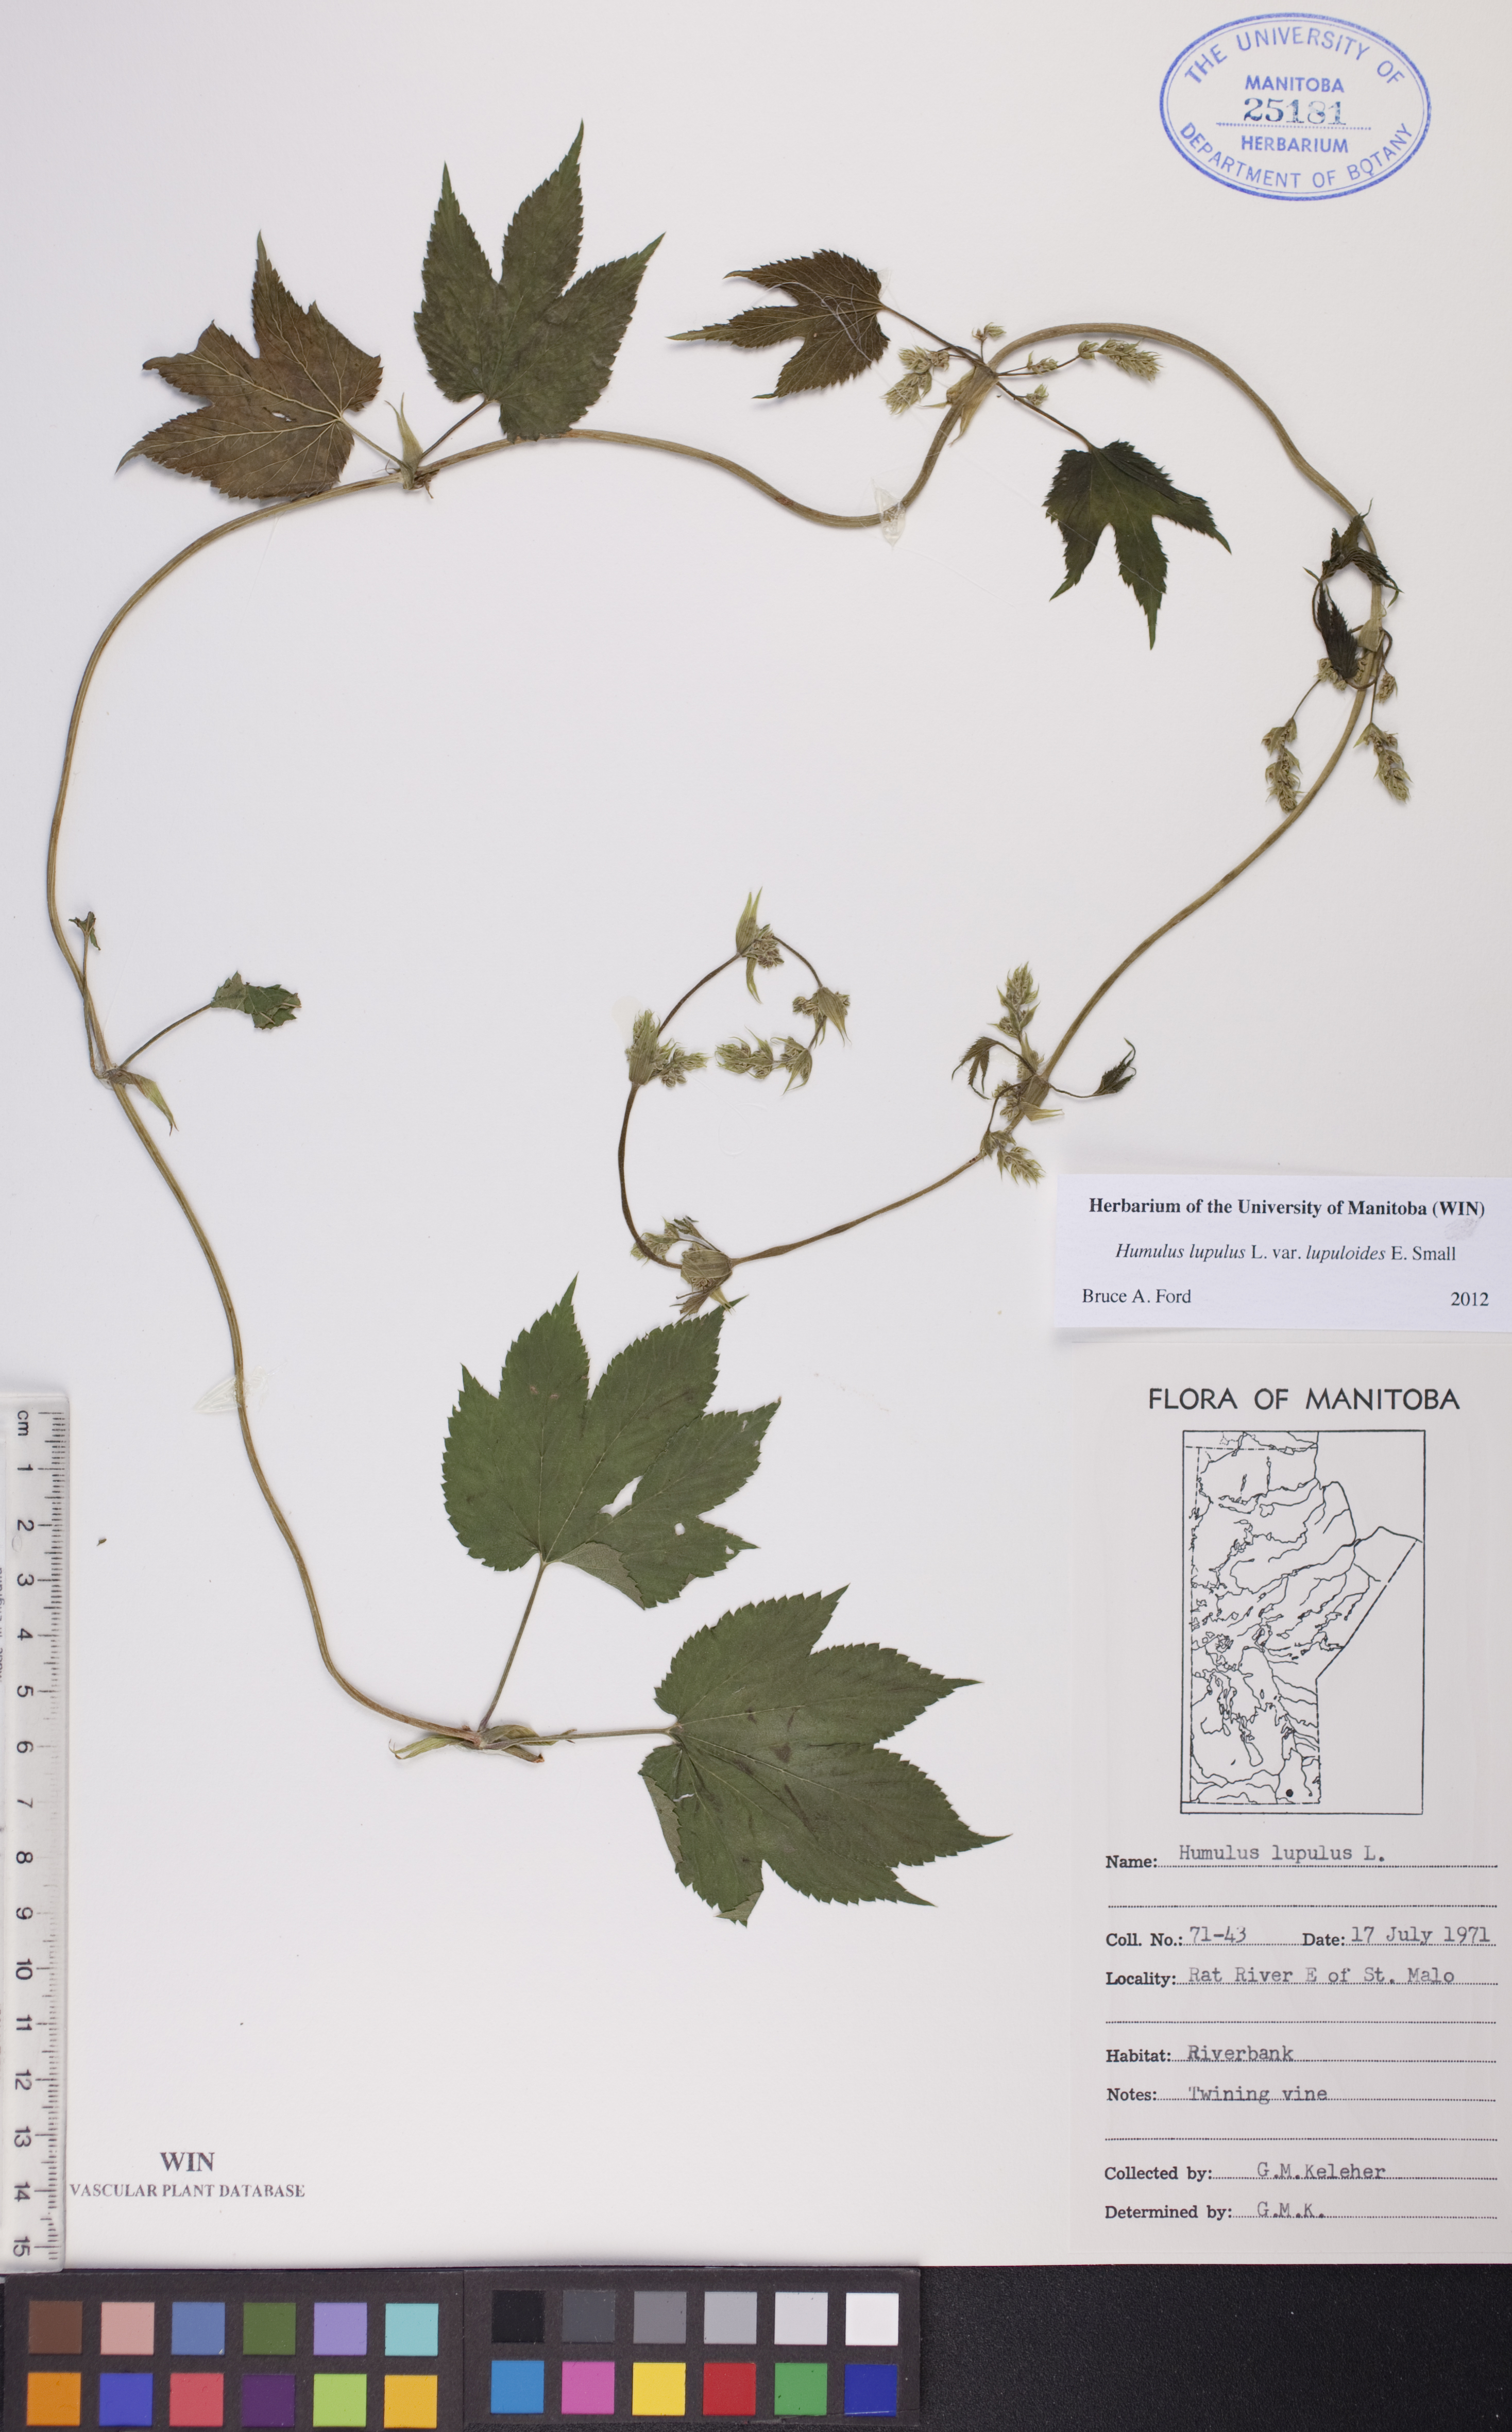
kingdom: Plantae
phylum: Tracheophyta
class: Magnoliopsida
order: Rosales
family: Cannabaceae
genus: Humulus
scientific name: Humulus americanus
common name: American hops
